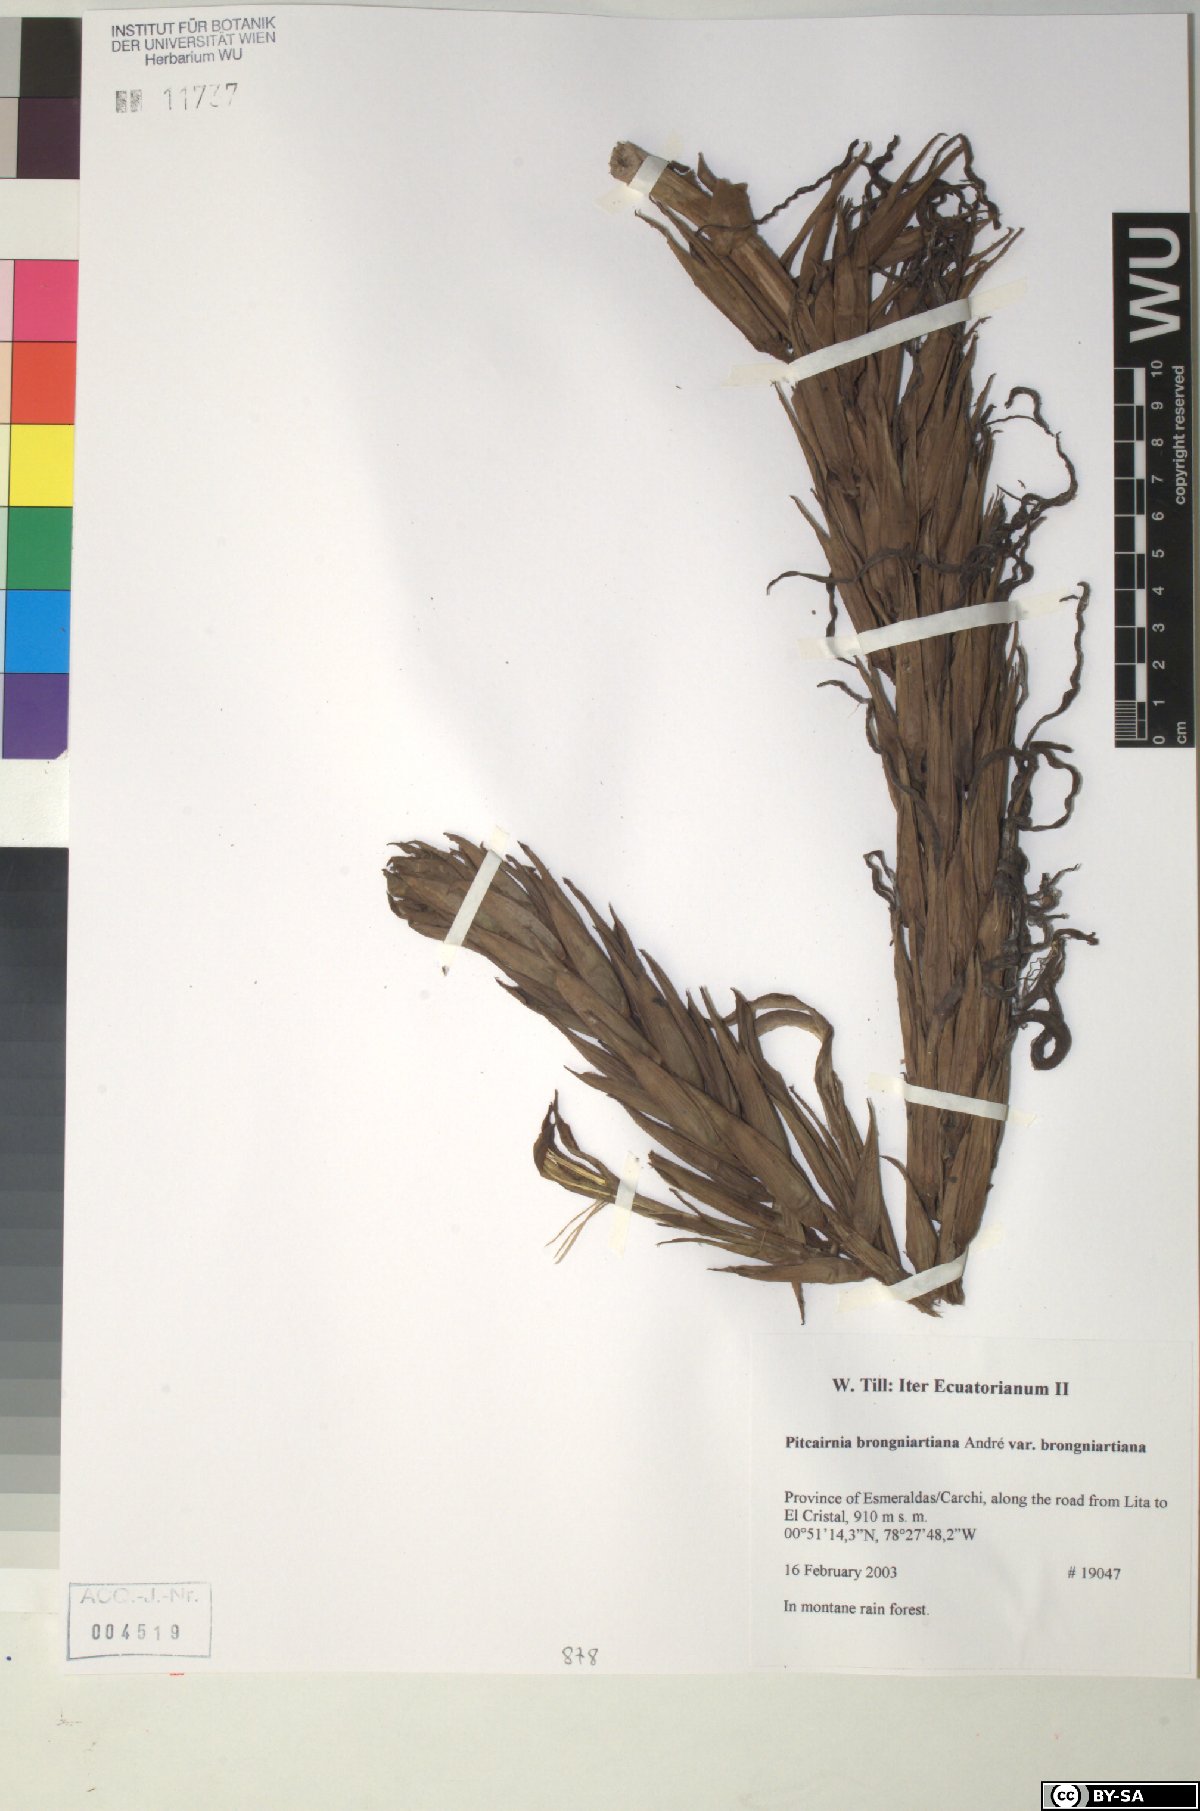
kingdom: Plantae
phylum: Tracheophyta
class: Liliopsida
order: Poales
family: Bromeliaceae
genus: Pitcairnia
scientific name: Pitcairnia
